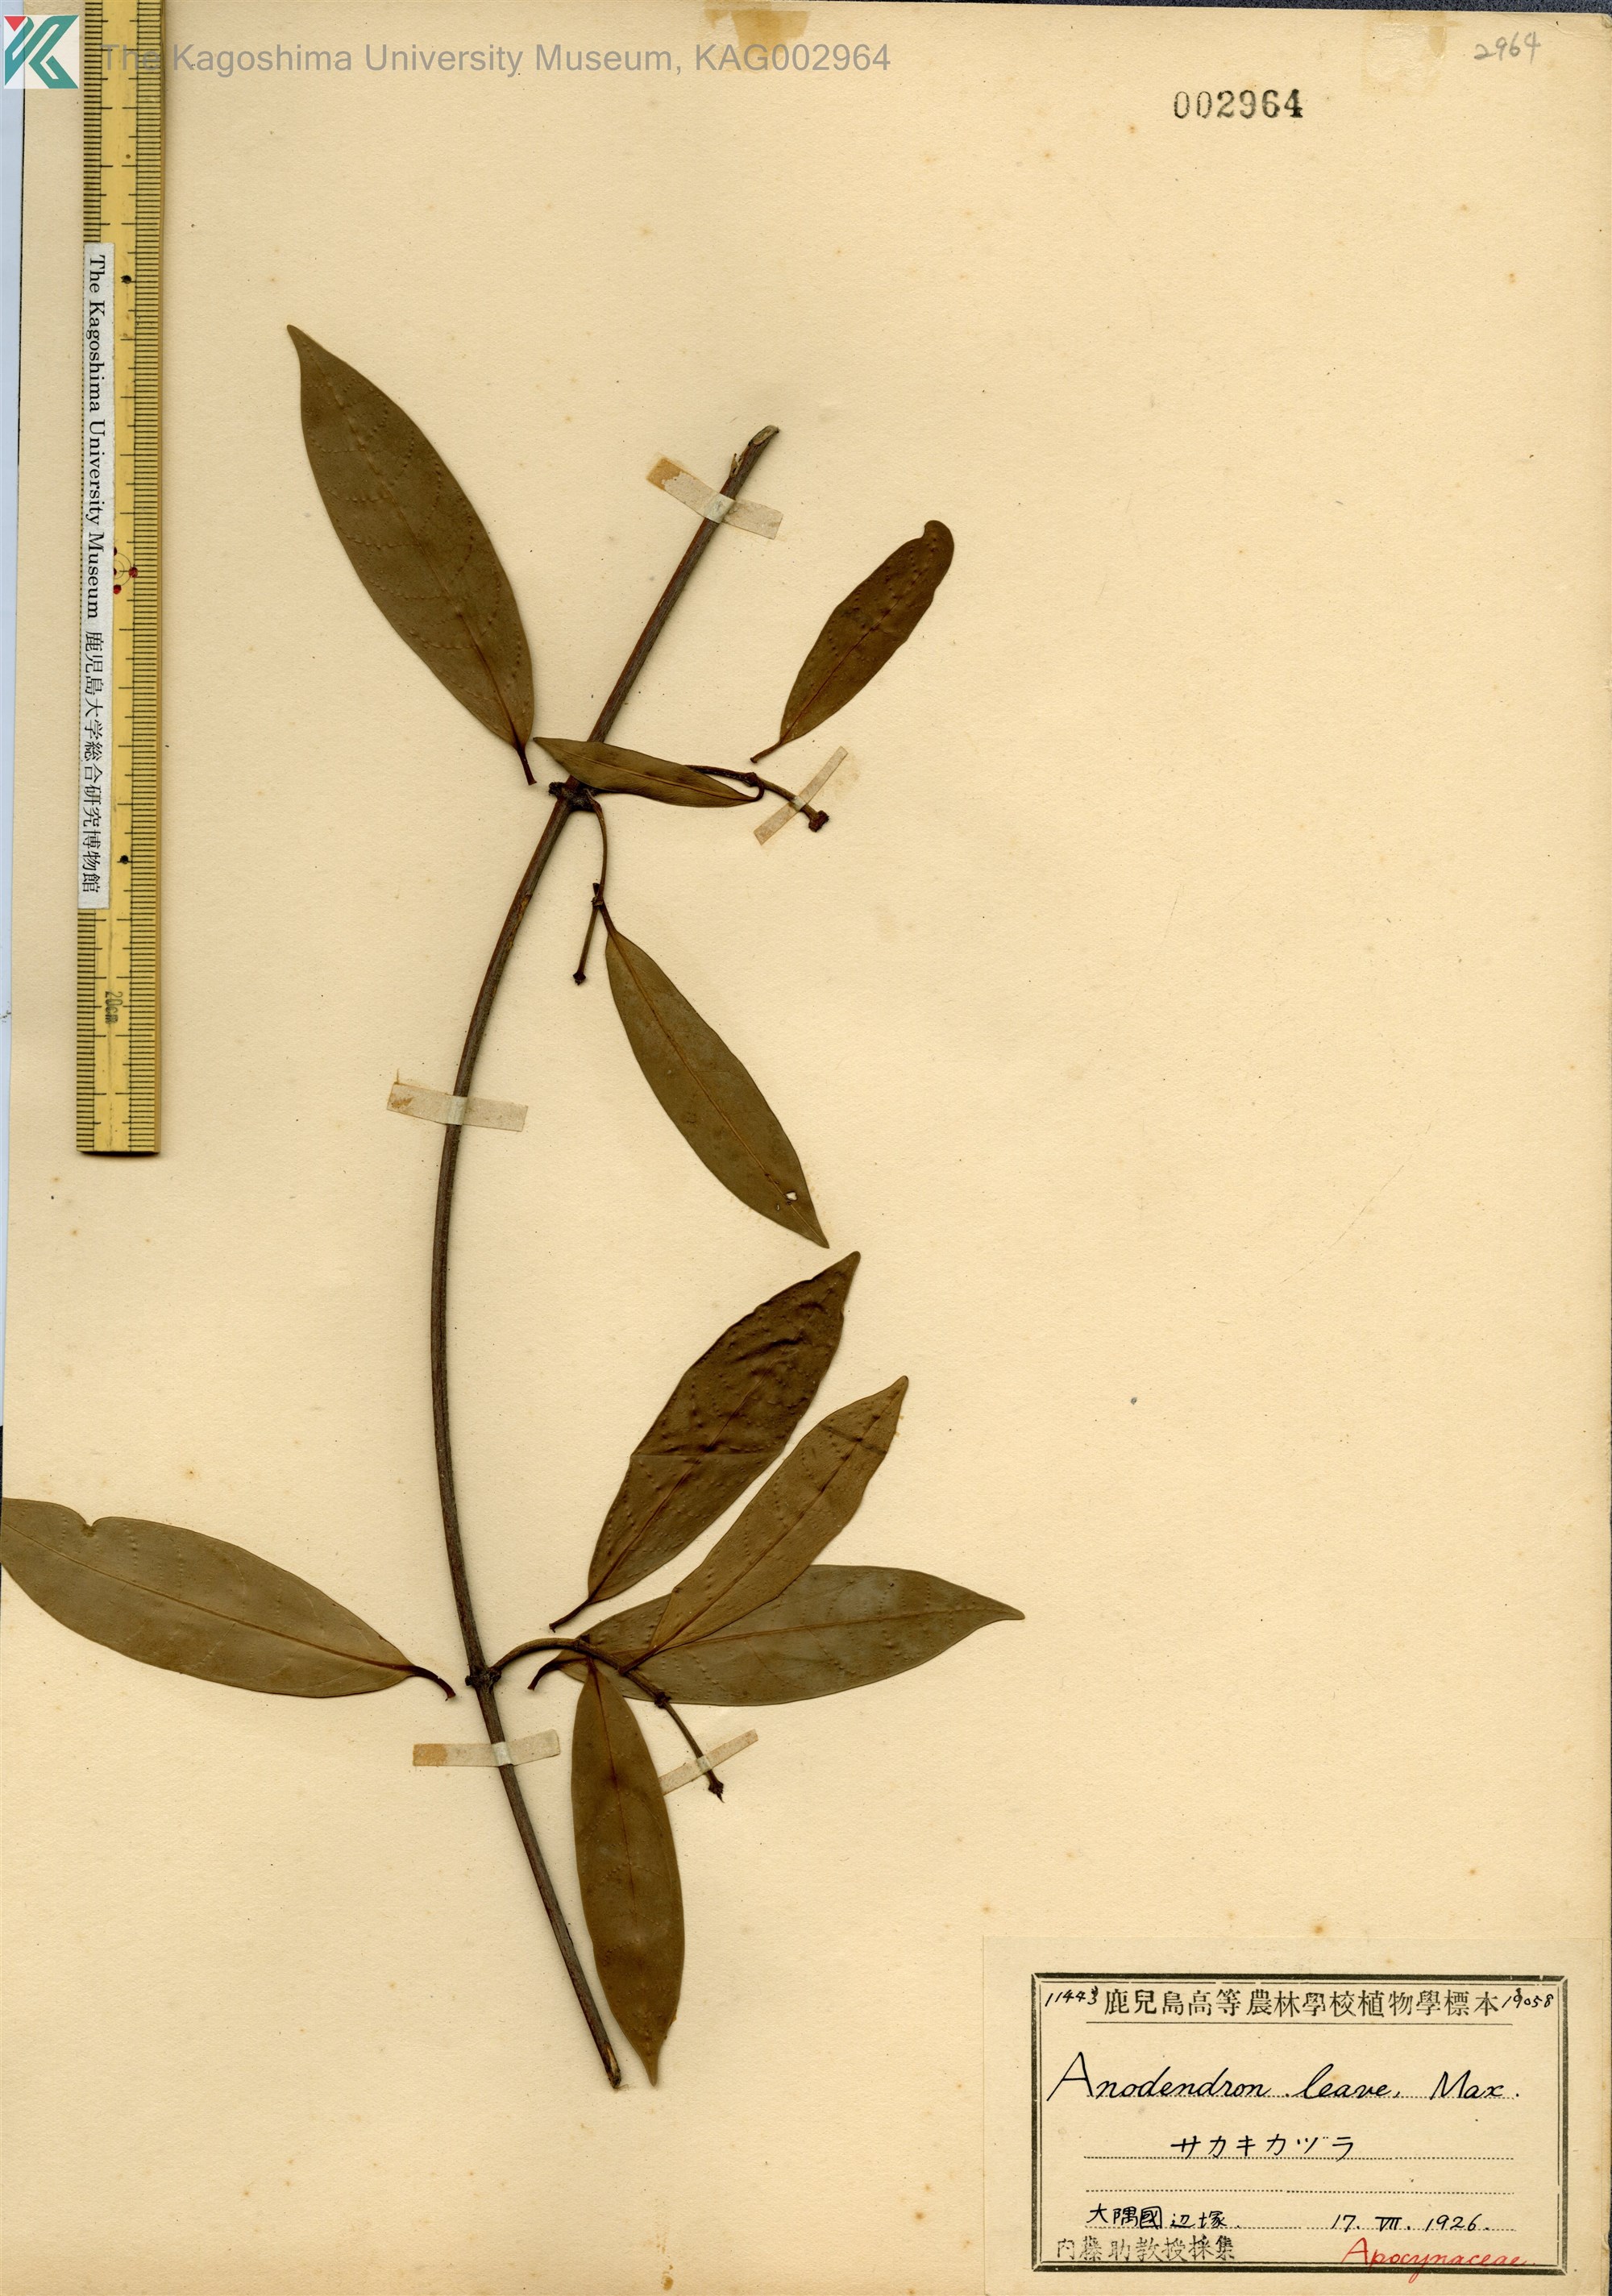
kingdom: Plantae
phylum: Tracheophyta
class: Magnoliopsida
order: Gentianales
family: Apocynaceae
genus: Anodendron
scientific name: Anodendron affine
